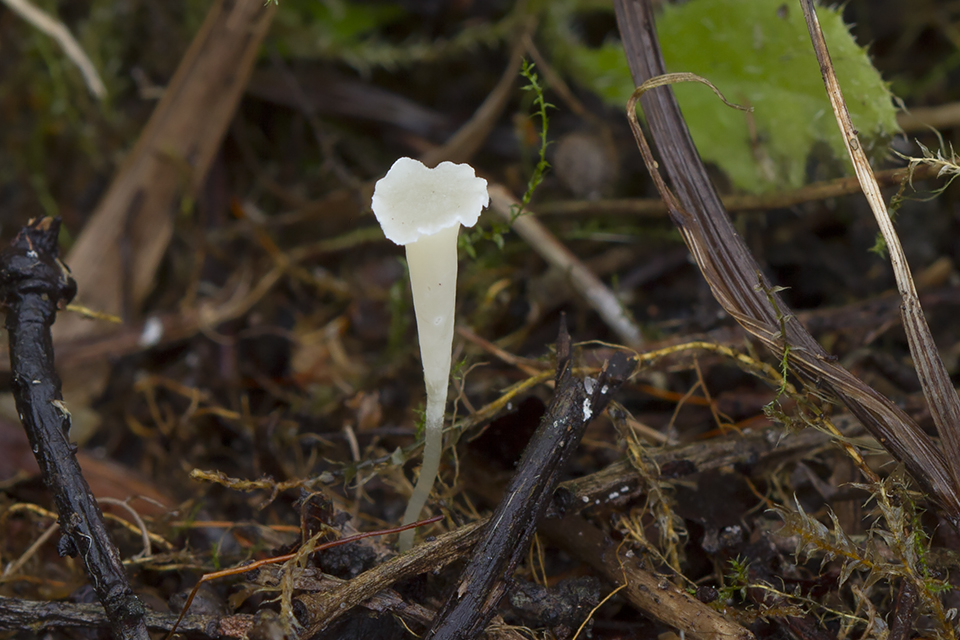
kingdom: Fungi
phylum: Basidiomycota
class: Agaricomycetes
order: Agaricales
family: Clavariaceae
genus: Clavicorona
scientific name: Clavicorona taxophila
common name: trompetkølle
